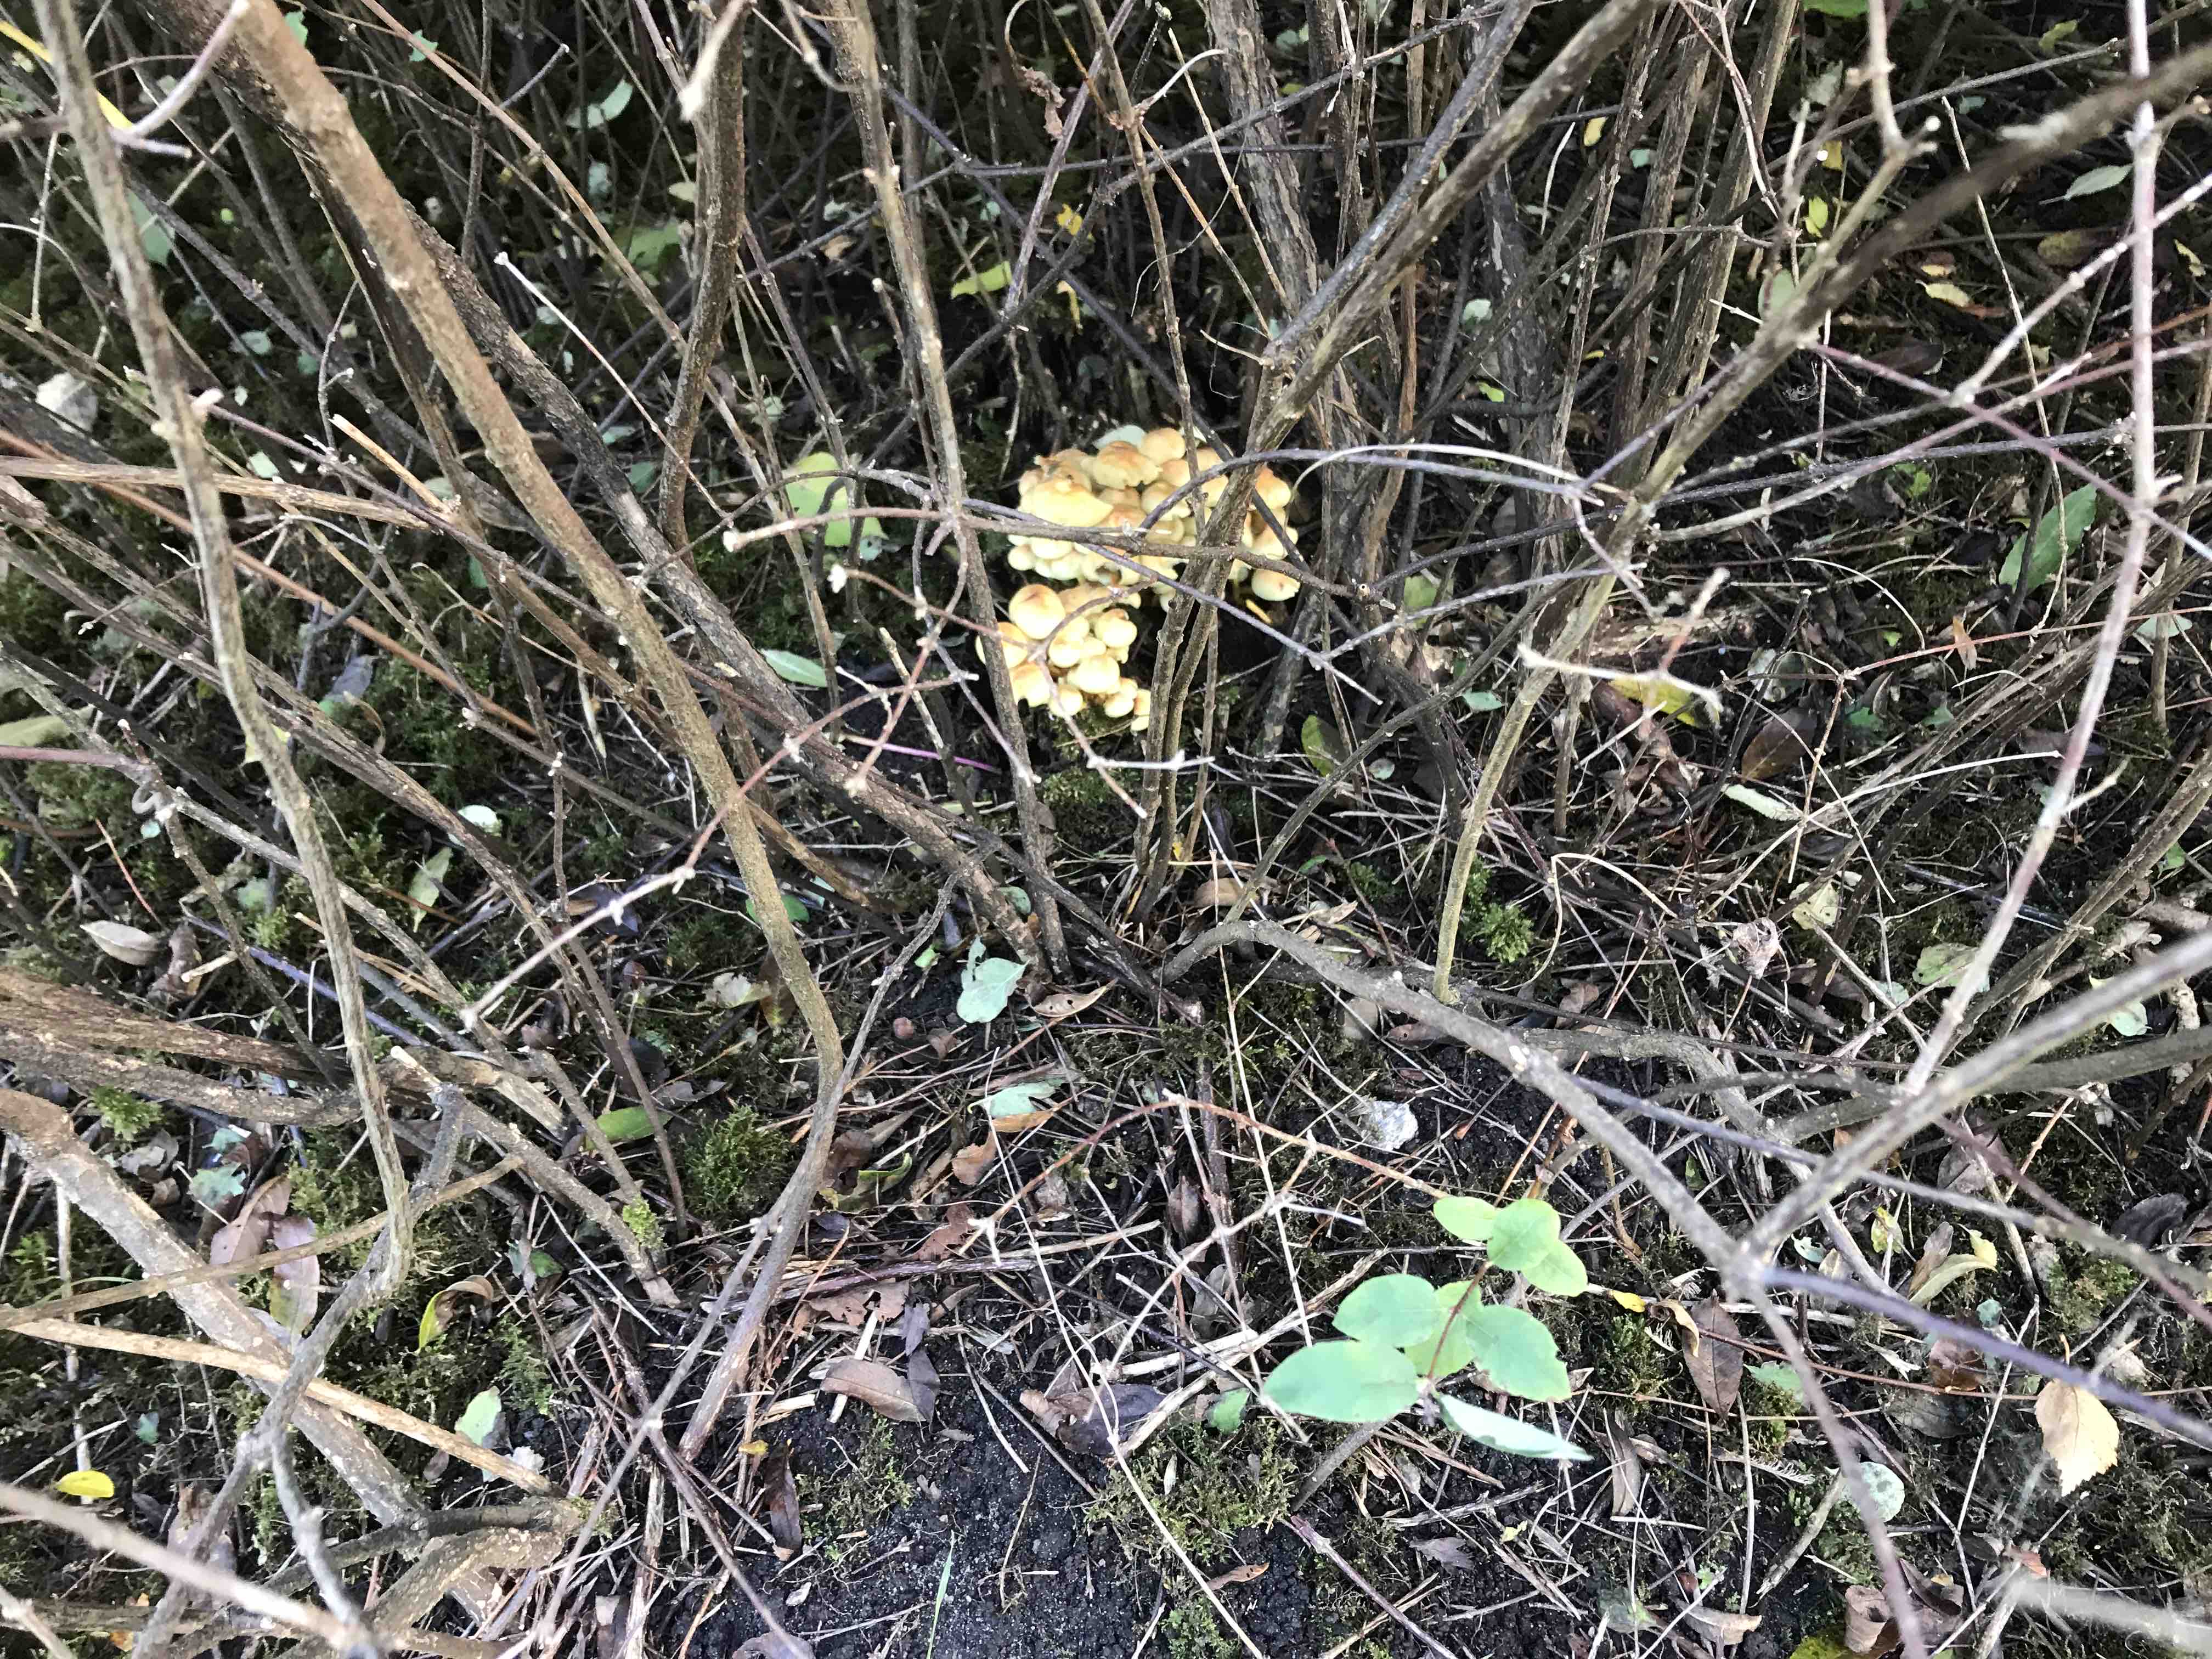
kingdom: Fungi
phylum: Basidiomycota
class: Agaricomycetes
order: Agaricales
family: Strophariaceae
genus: Hypholoma
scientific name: Hypholoma fasciculare
